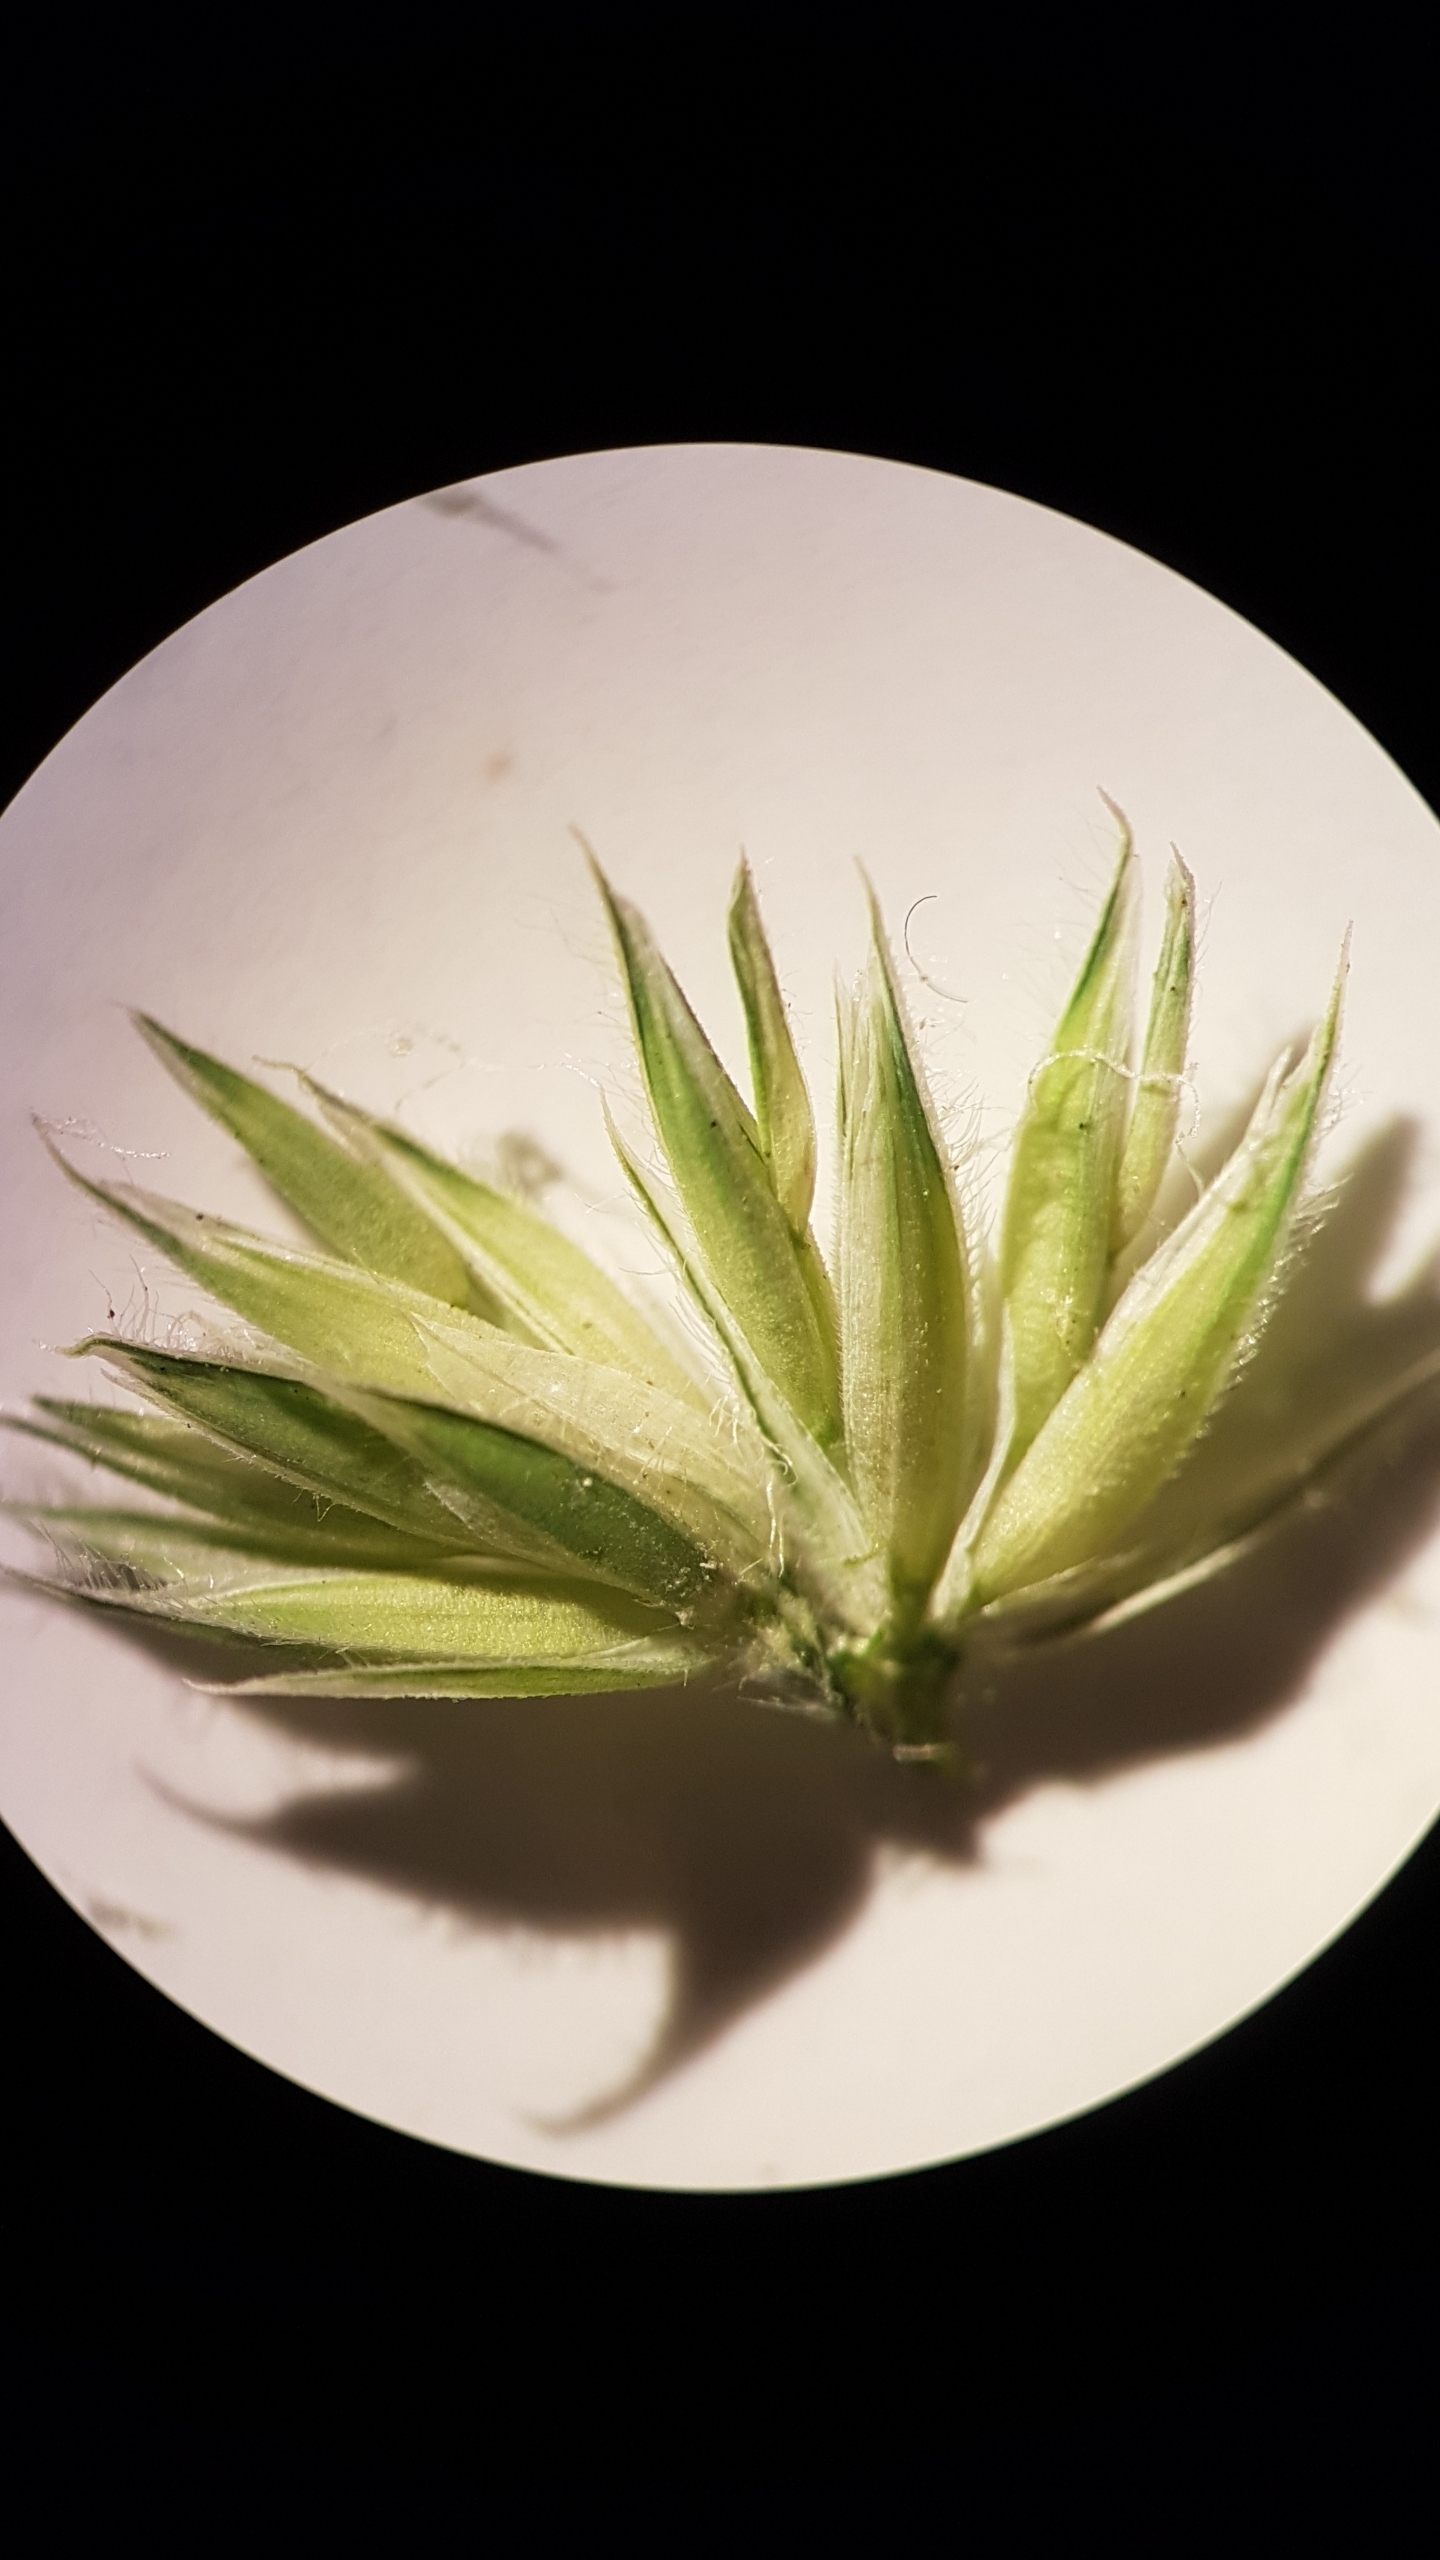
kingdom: Plantae
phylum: Tracheophyta
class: Liliopsida
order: Poales
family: Poaceae
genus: Dactylis
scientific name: Dactylis glomerata
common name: Almindelig hundegræs
